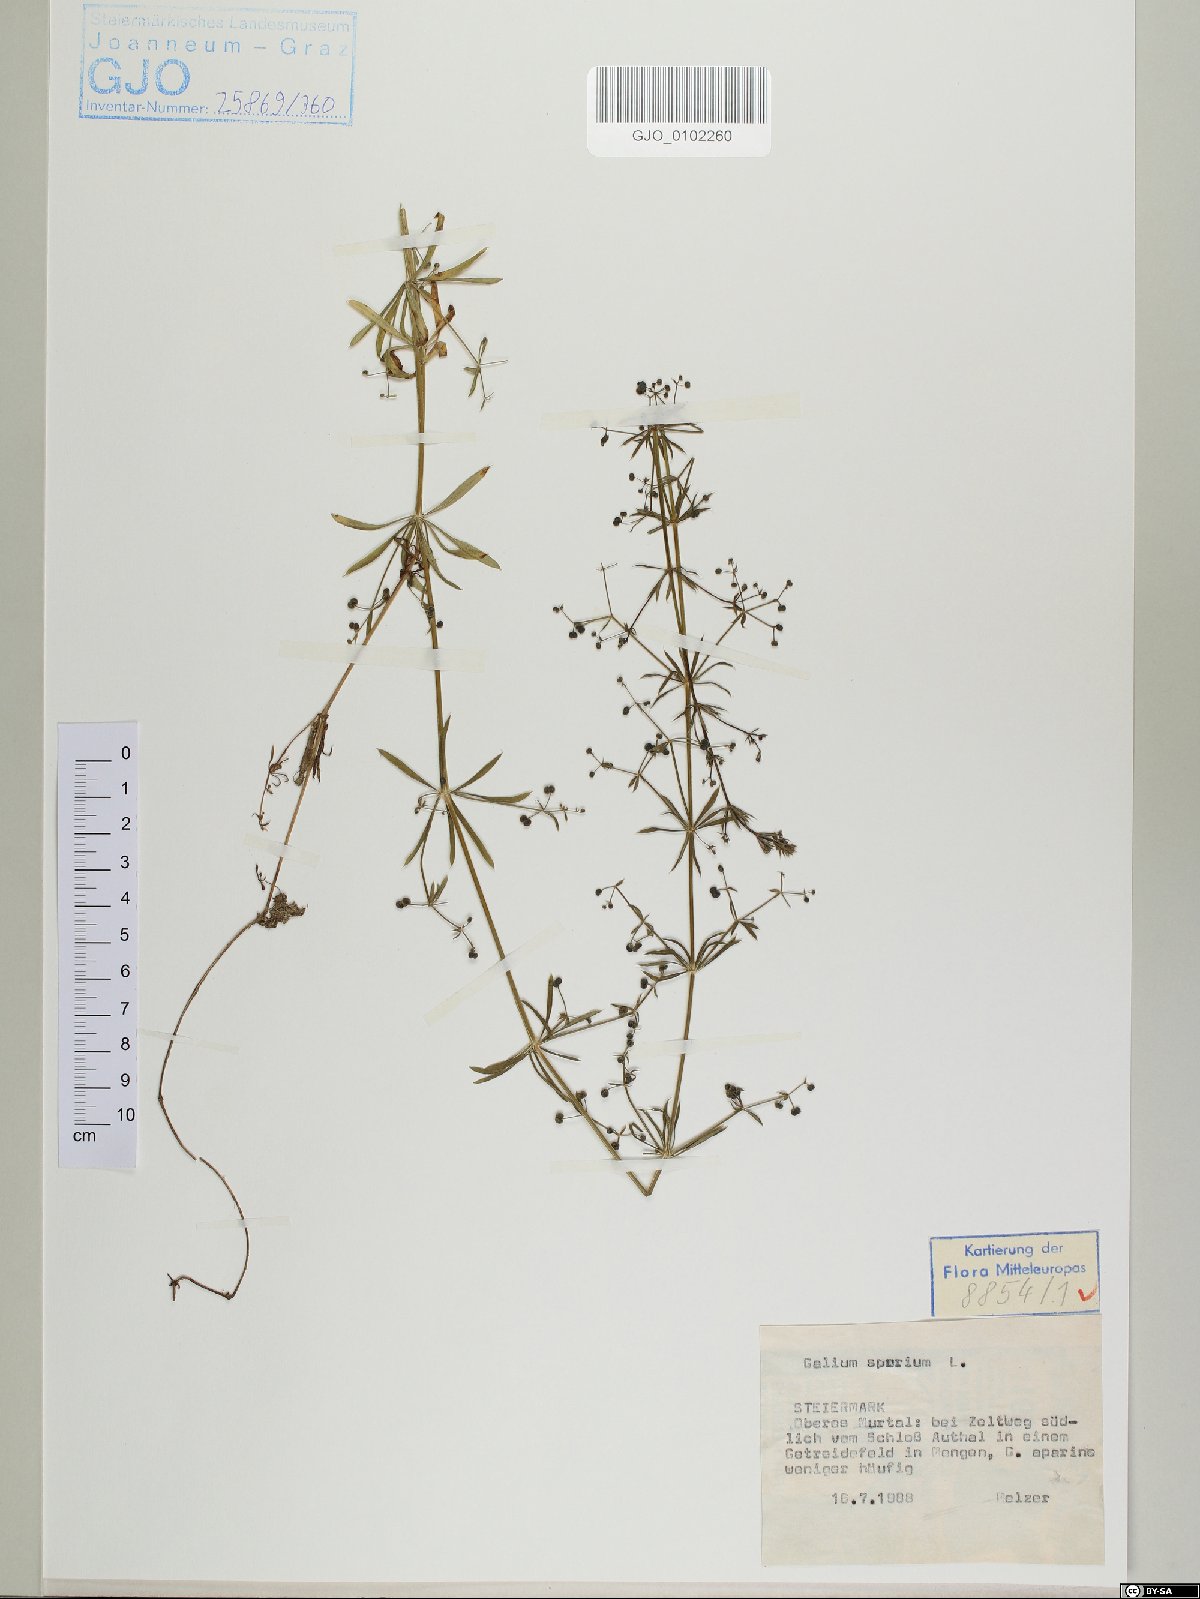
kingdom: Plantae
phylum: Tracheophyta
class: Magnoliopsida
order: Gentianales
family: Rubiaceae
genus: Galium
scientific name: Galium spurium
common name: False cleavers
